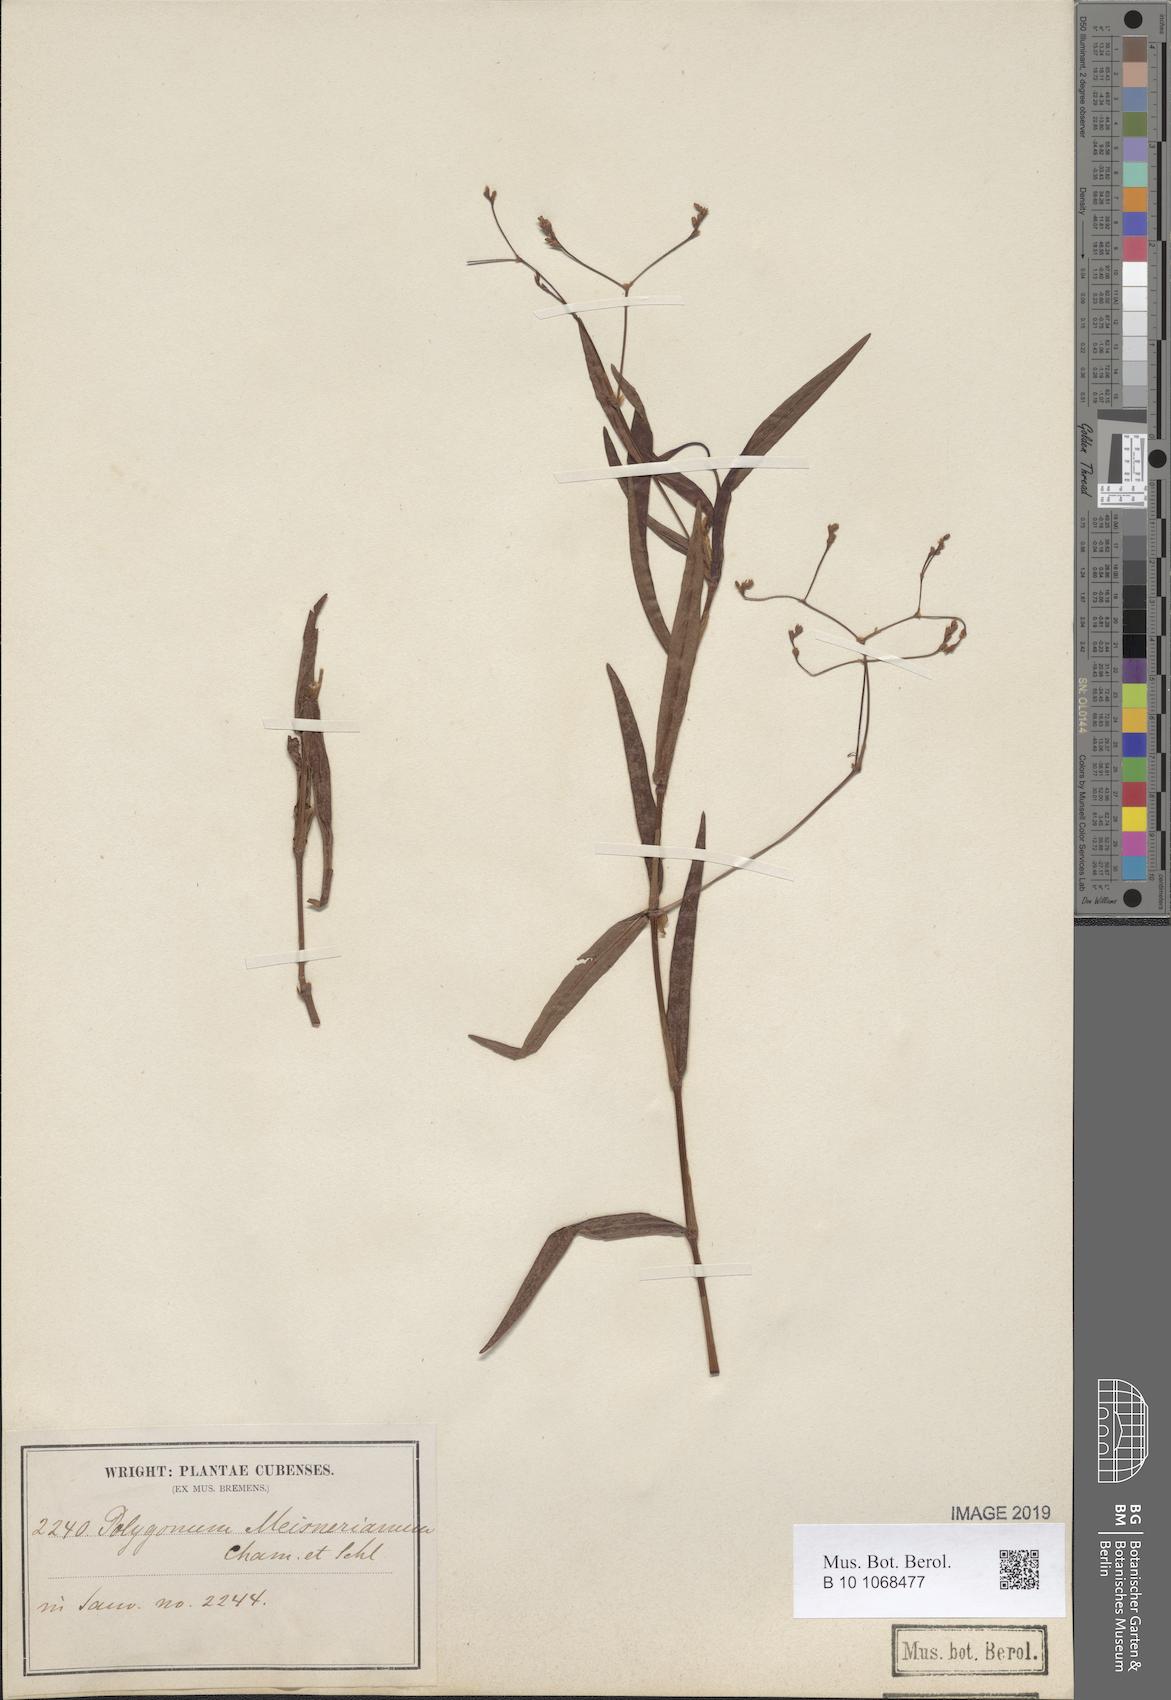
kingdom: Plantae
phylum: Tracheophyta
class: Magnoliopsida
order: Caryophyllales
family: Polygonaceae
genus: Persicaria
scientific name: Persicaria meisneriana
